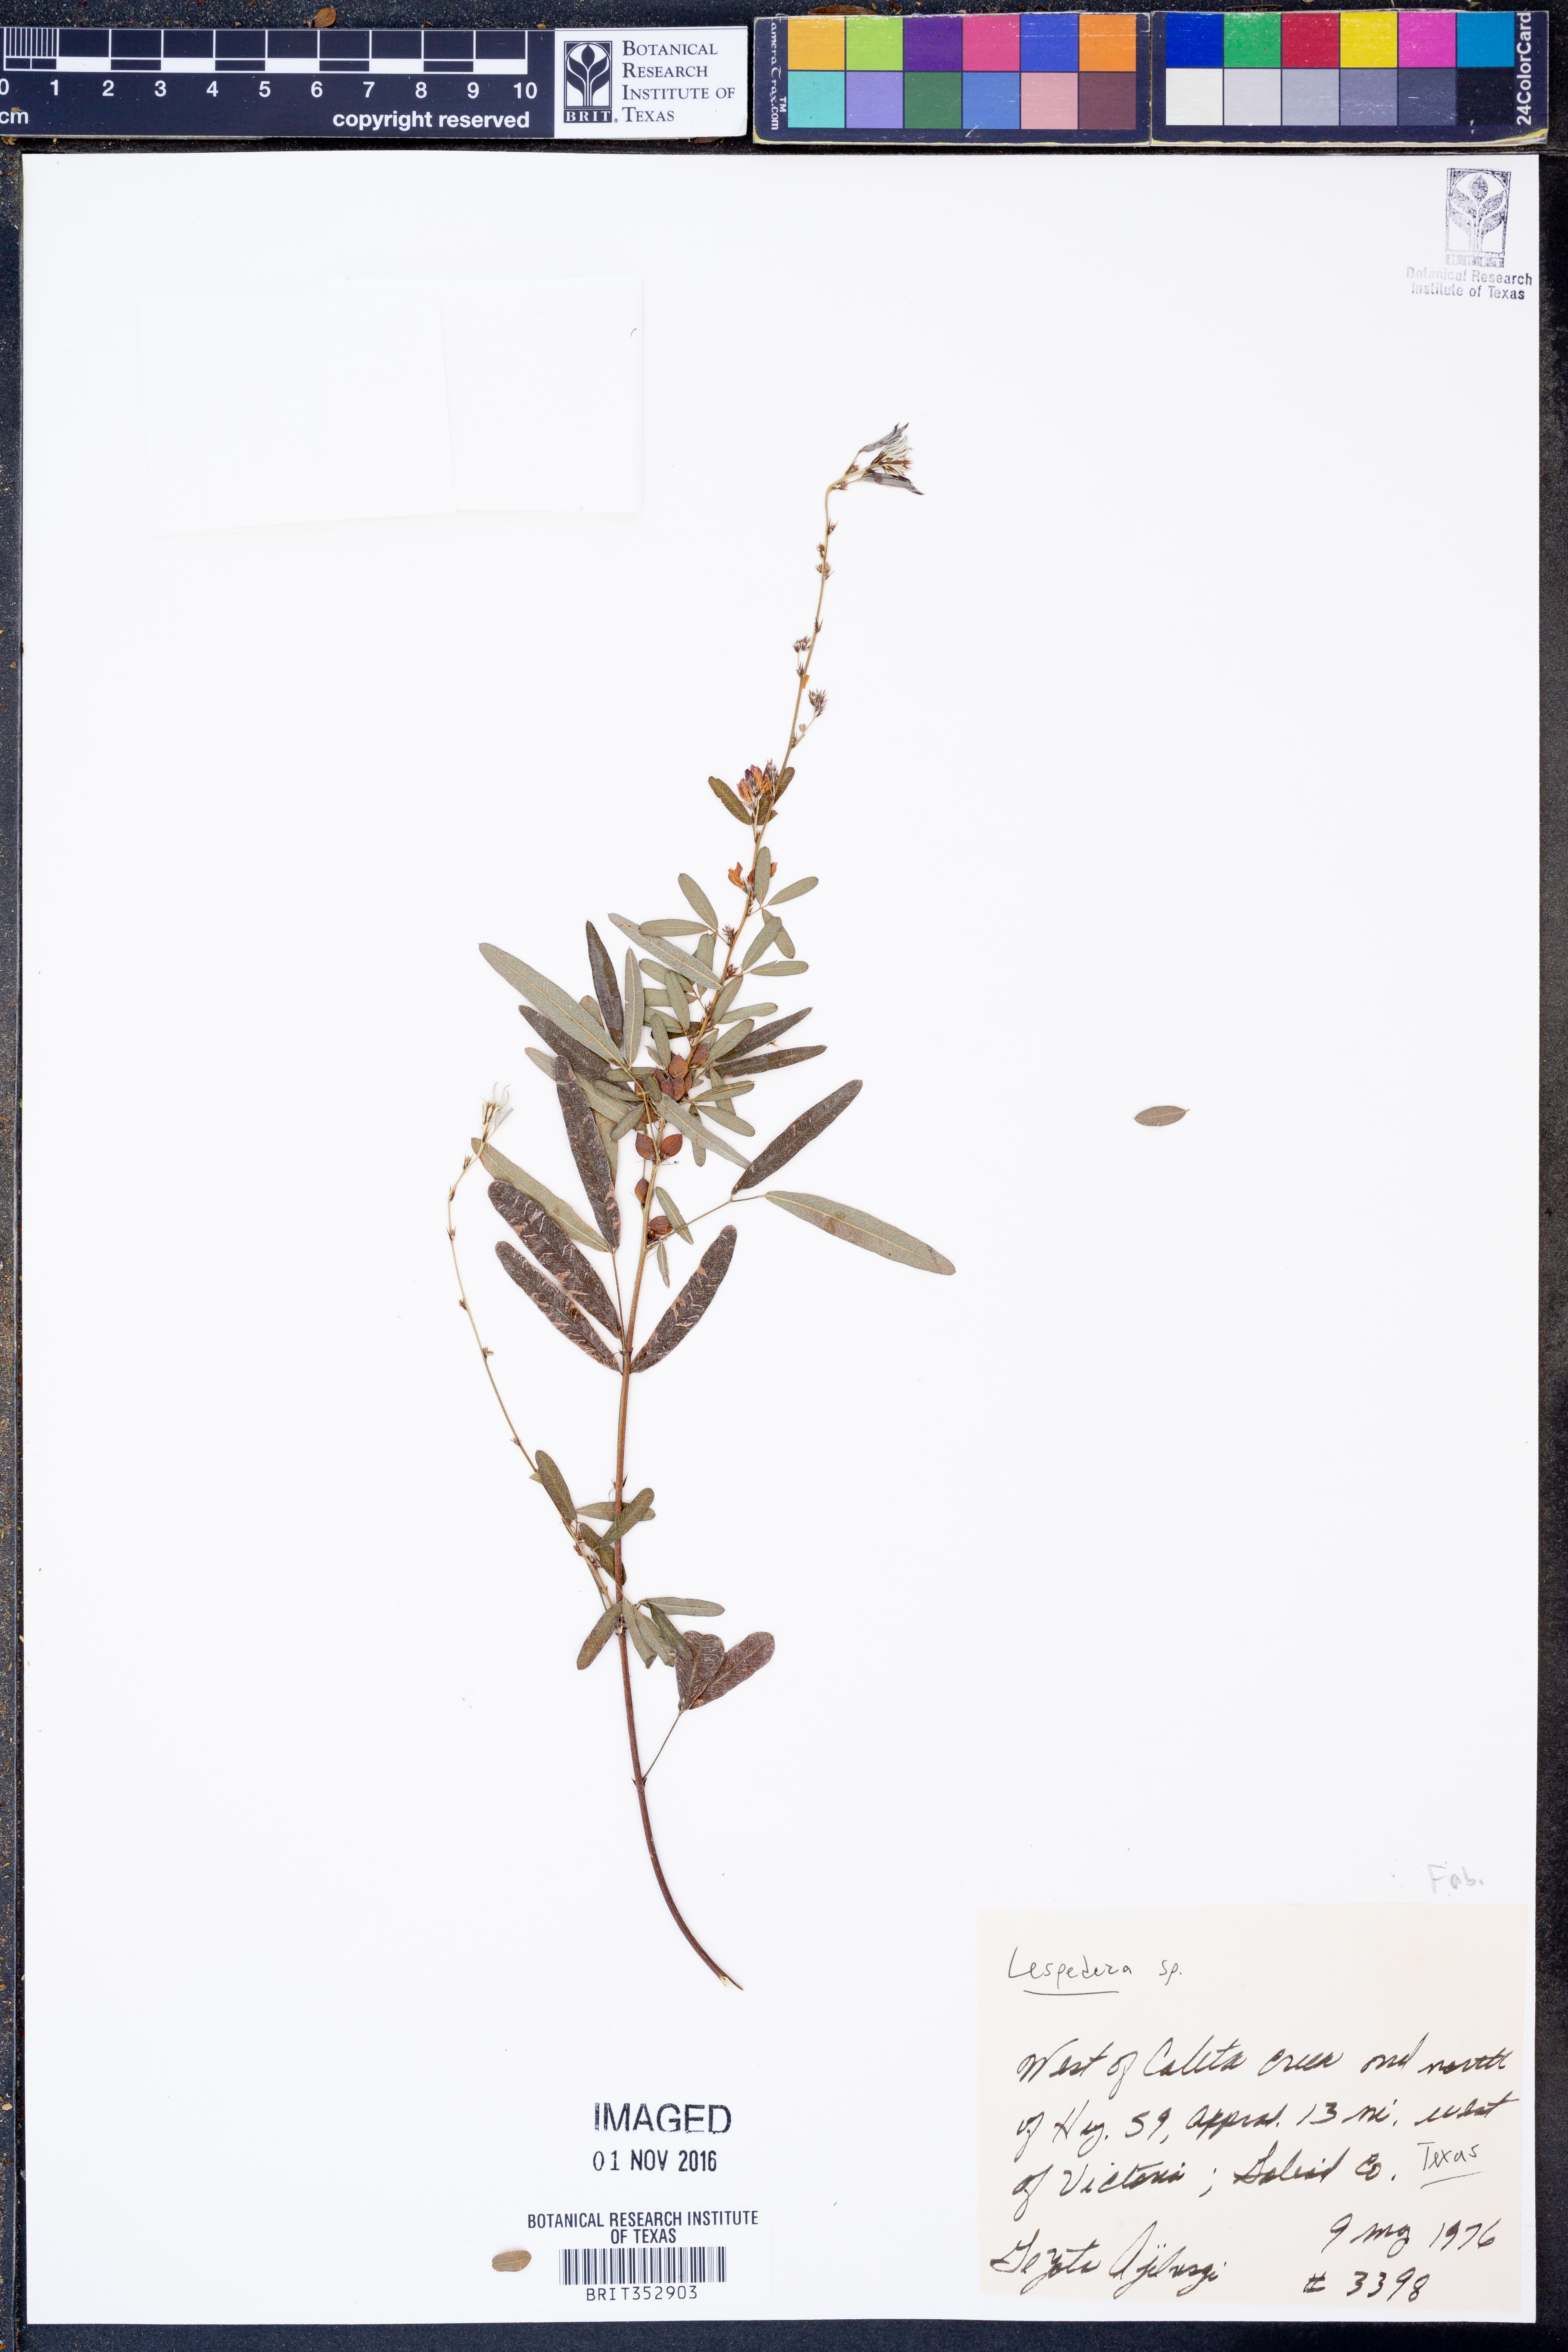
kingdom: Plantae
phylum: Tracheophyta
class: Magnoliopsida
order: Fabales
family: Fabaceae
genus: Lespedeza
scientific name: Lespedeza
